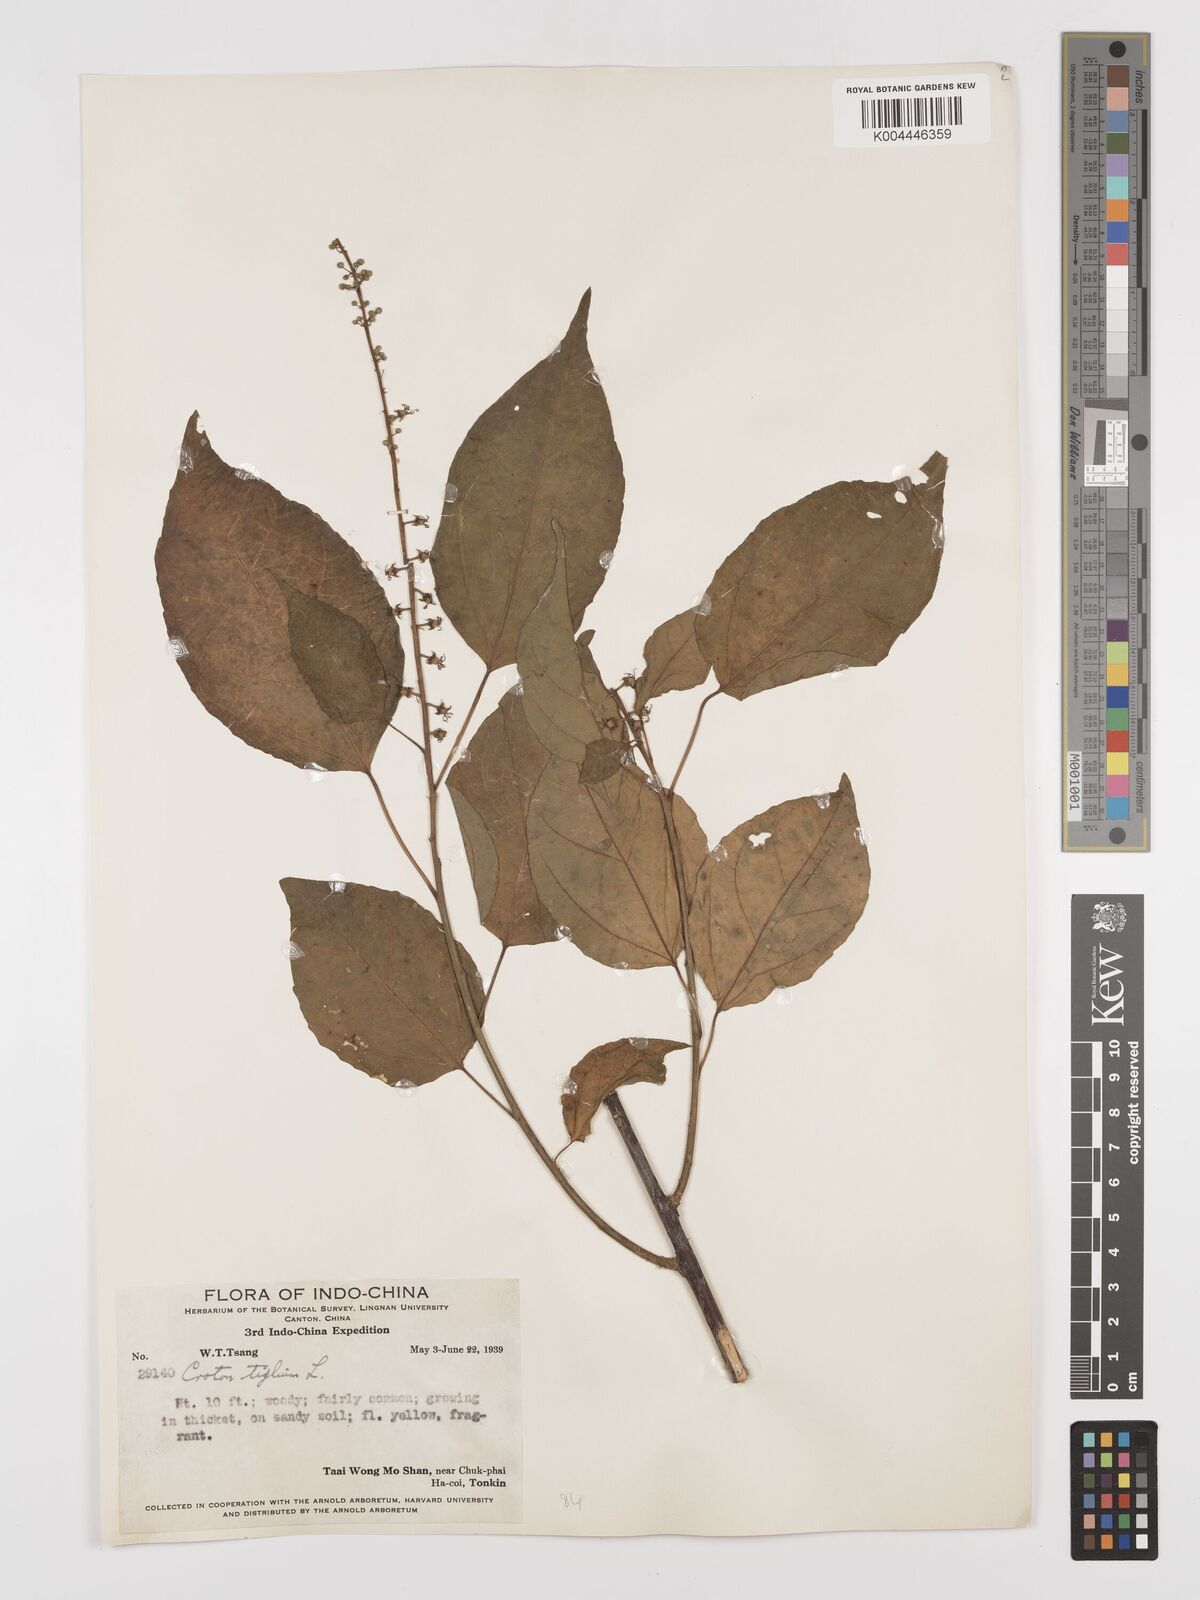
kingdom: Plantae
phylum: Tracheophyta
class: Magnoliopsida
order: Malpighiales
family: Euphorbiaceae
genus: Croton
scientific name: Croton tiglium
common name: Purging croton
